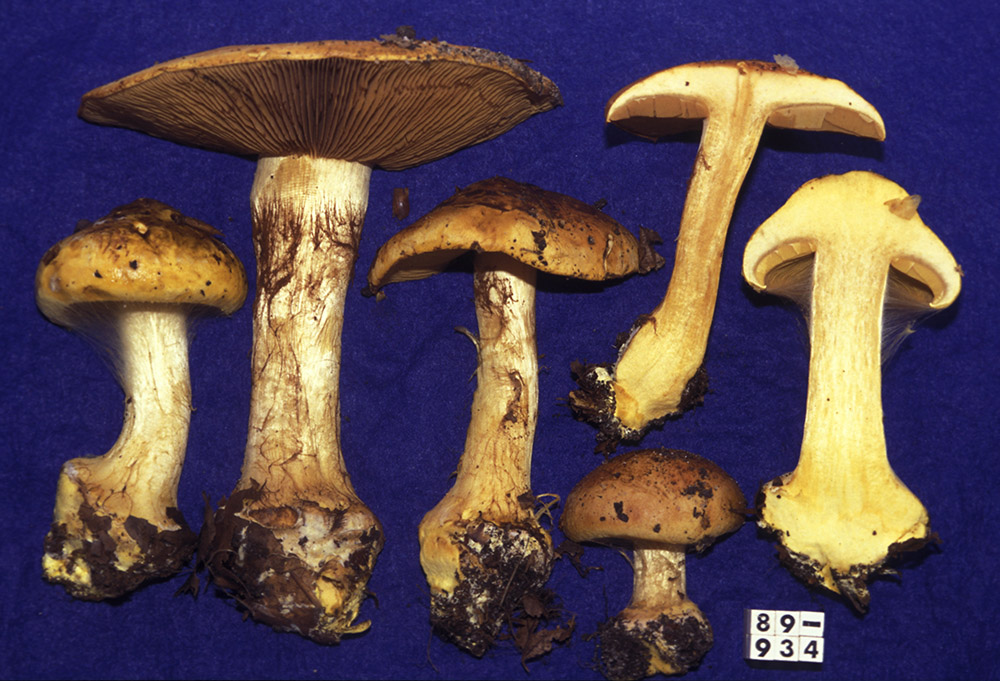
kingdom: Fungi
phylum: Basidiomycota
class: Agaricomycetes
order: Agaricales
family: Cortinariaceae
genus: Calonarius
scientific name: Calonarius olearioides
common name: safran-slørhat
